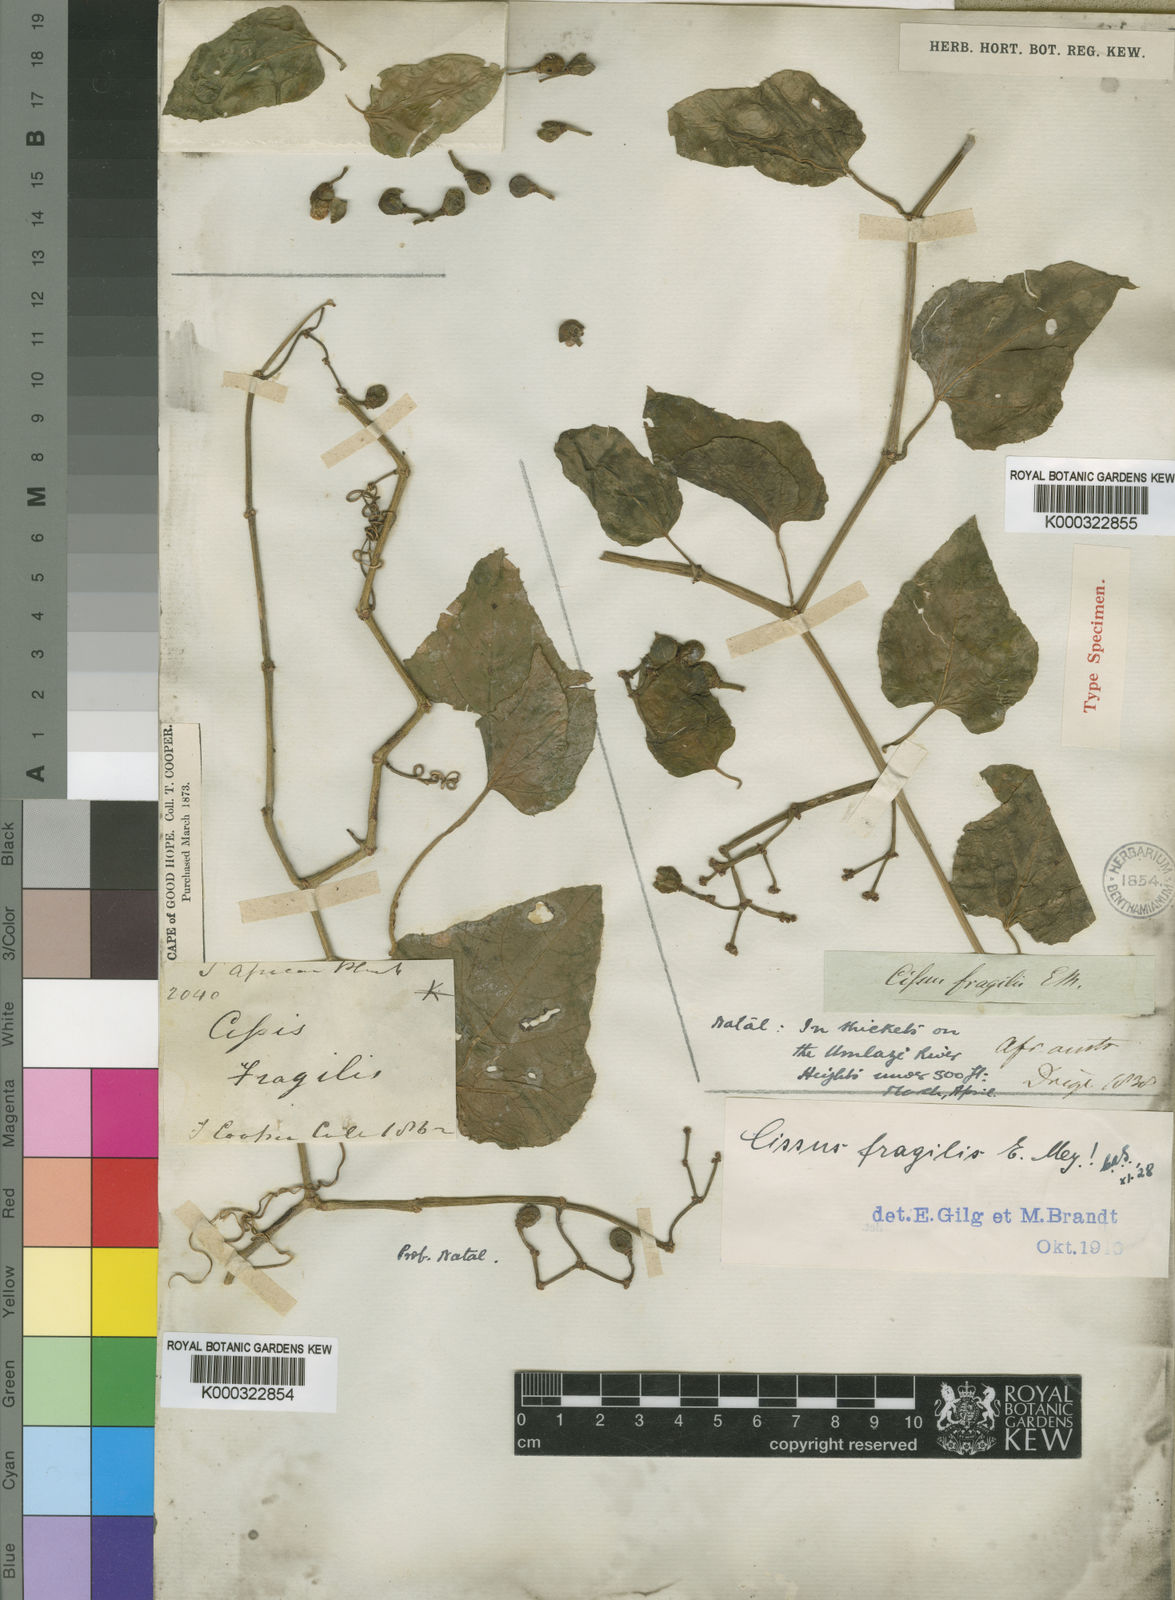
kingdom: Plantae
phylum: Tracheophyta
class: Magnoliopsida
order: Vitales
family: Vitaceae
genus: Cissus
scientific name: Cissus
